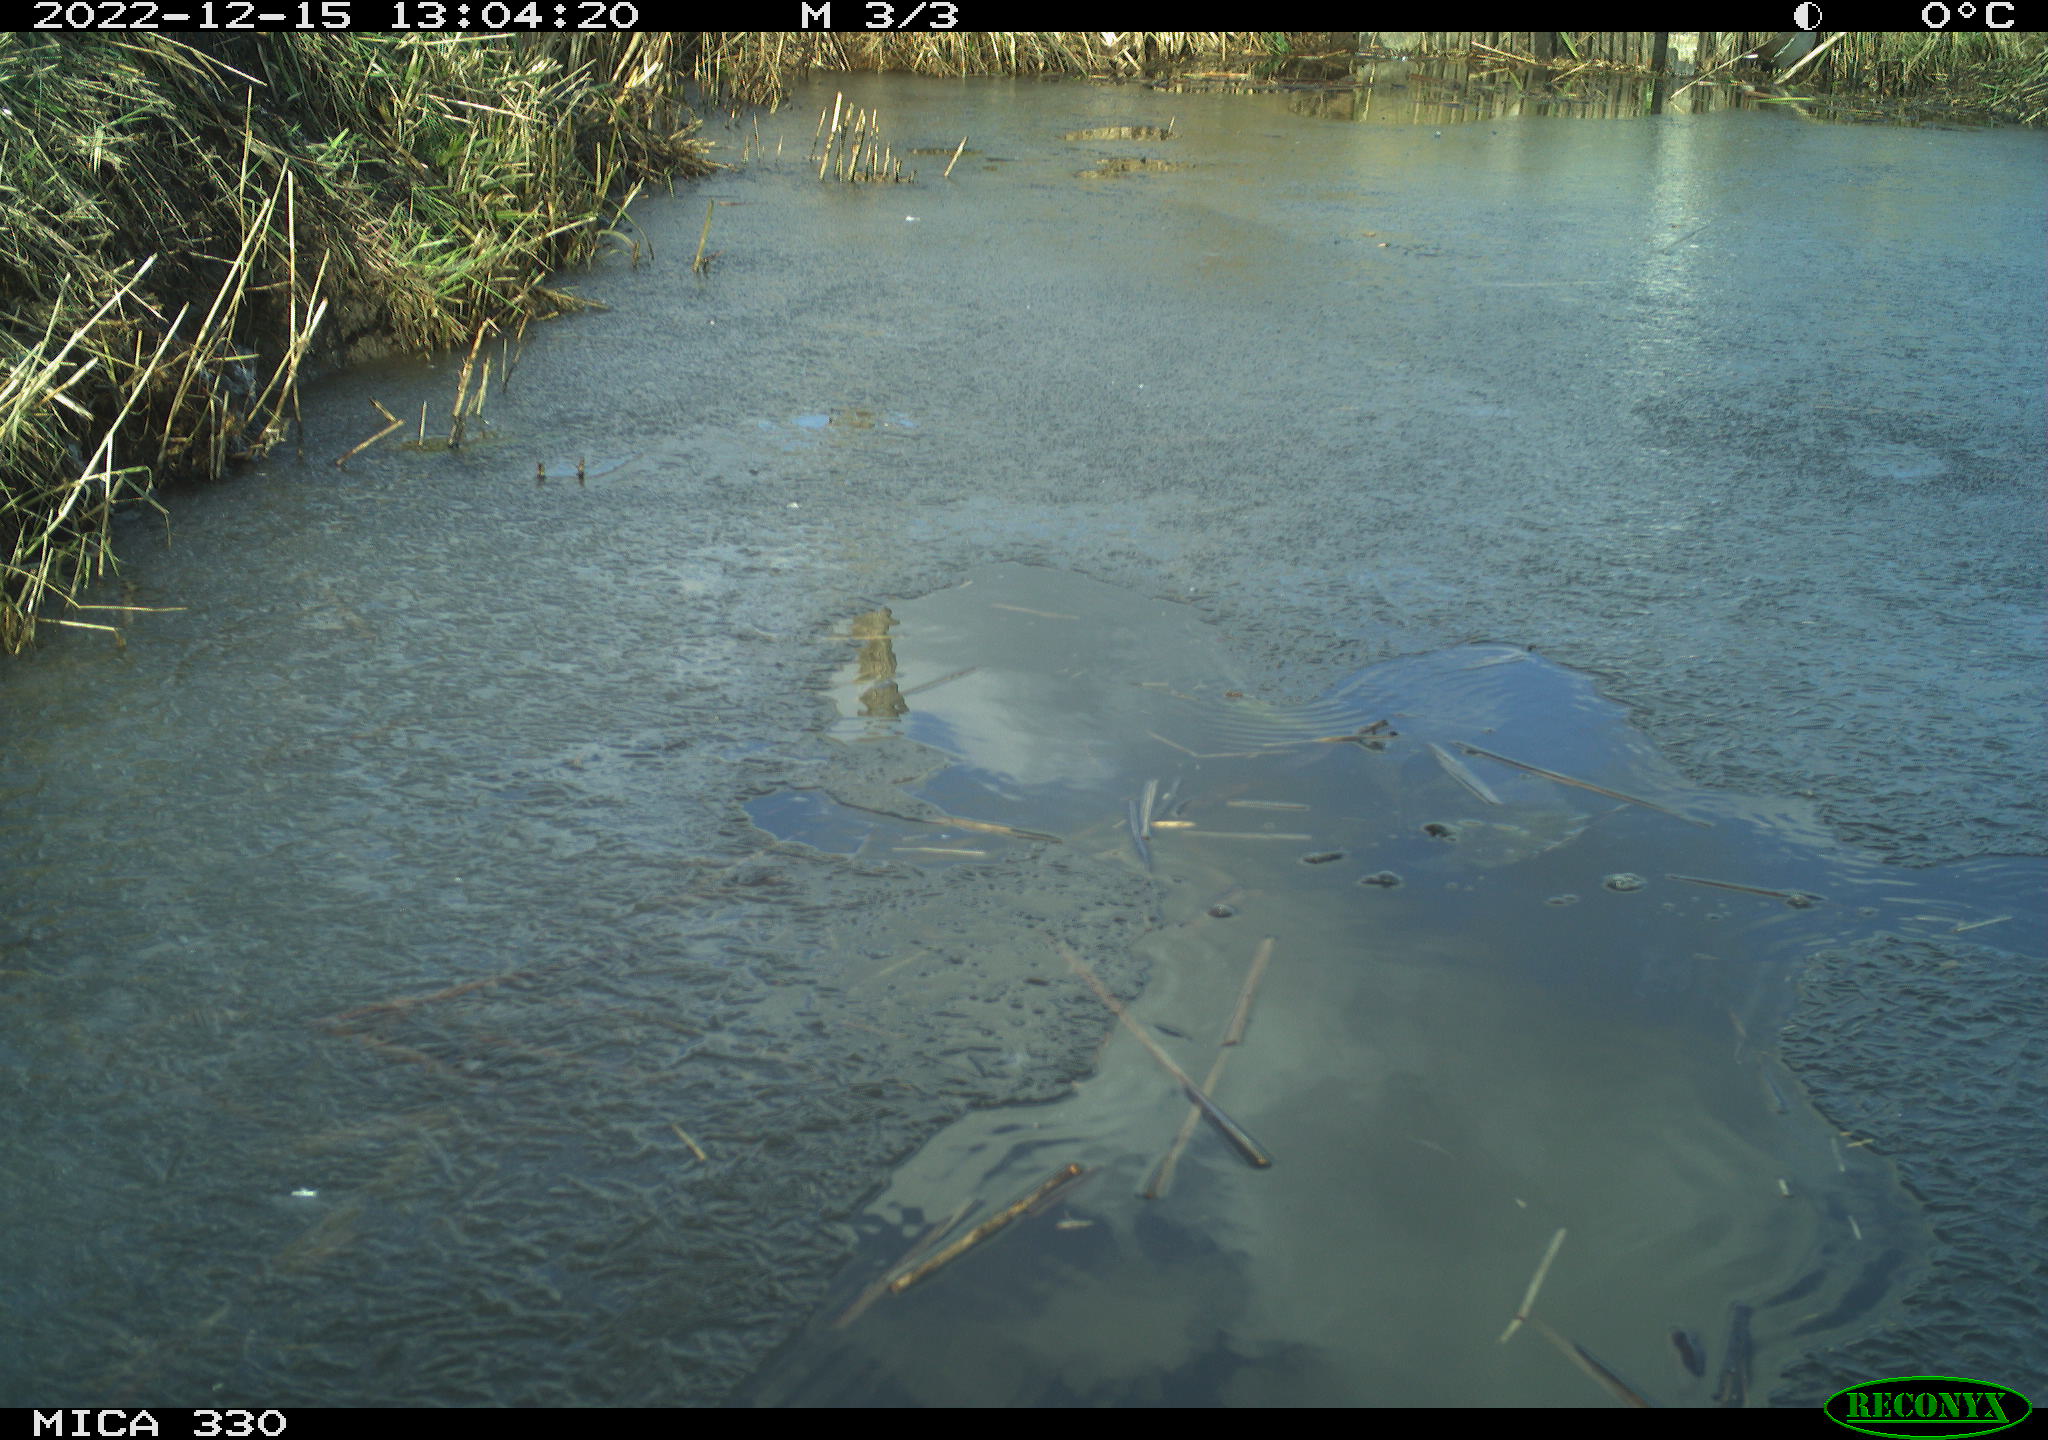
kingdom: Animalia
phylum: Chordata
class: Aves
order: Gruiformes
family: Rallidae
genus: Gallinula
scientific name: Gallinula chloropus
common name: Common moorhen
